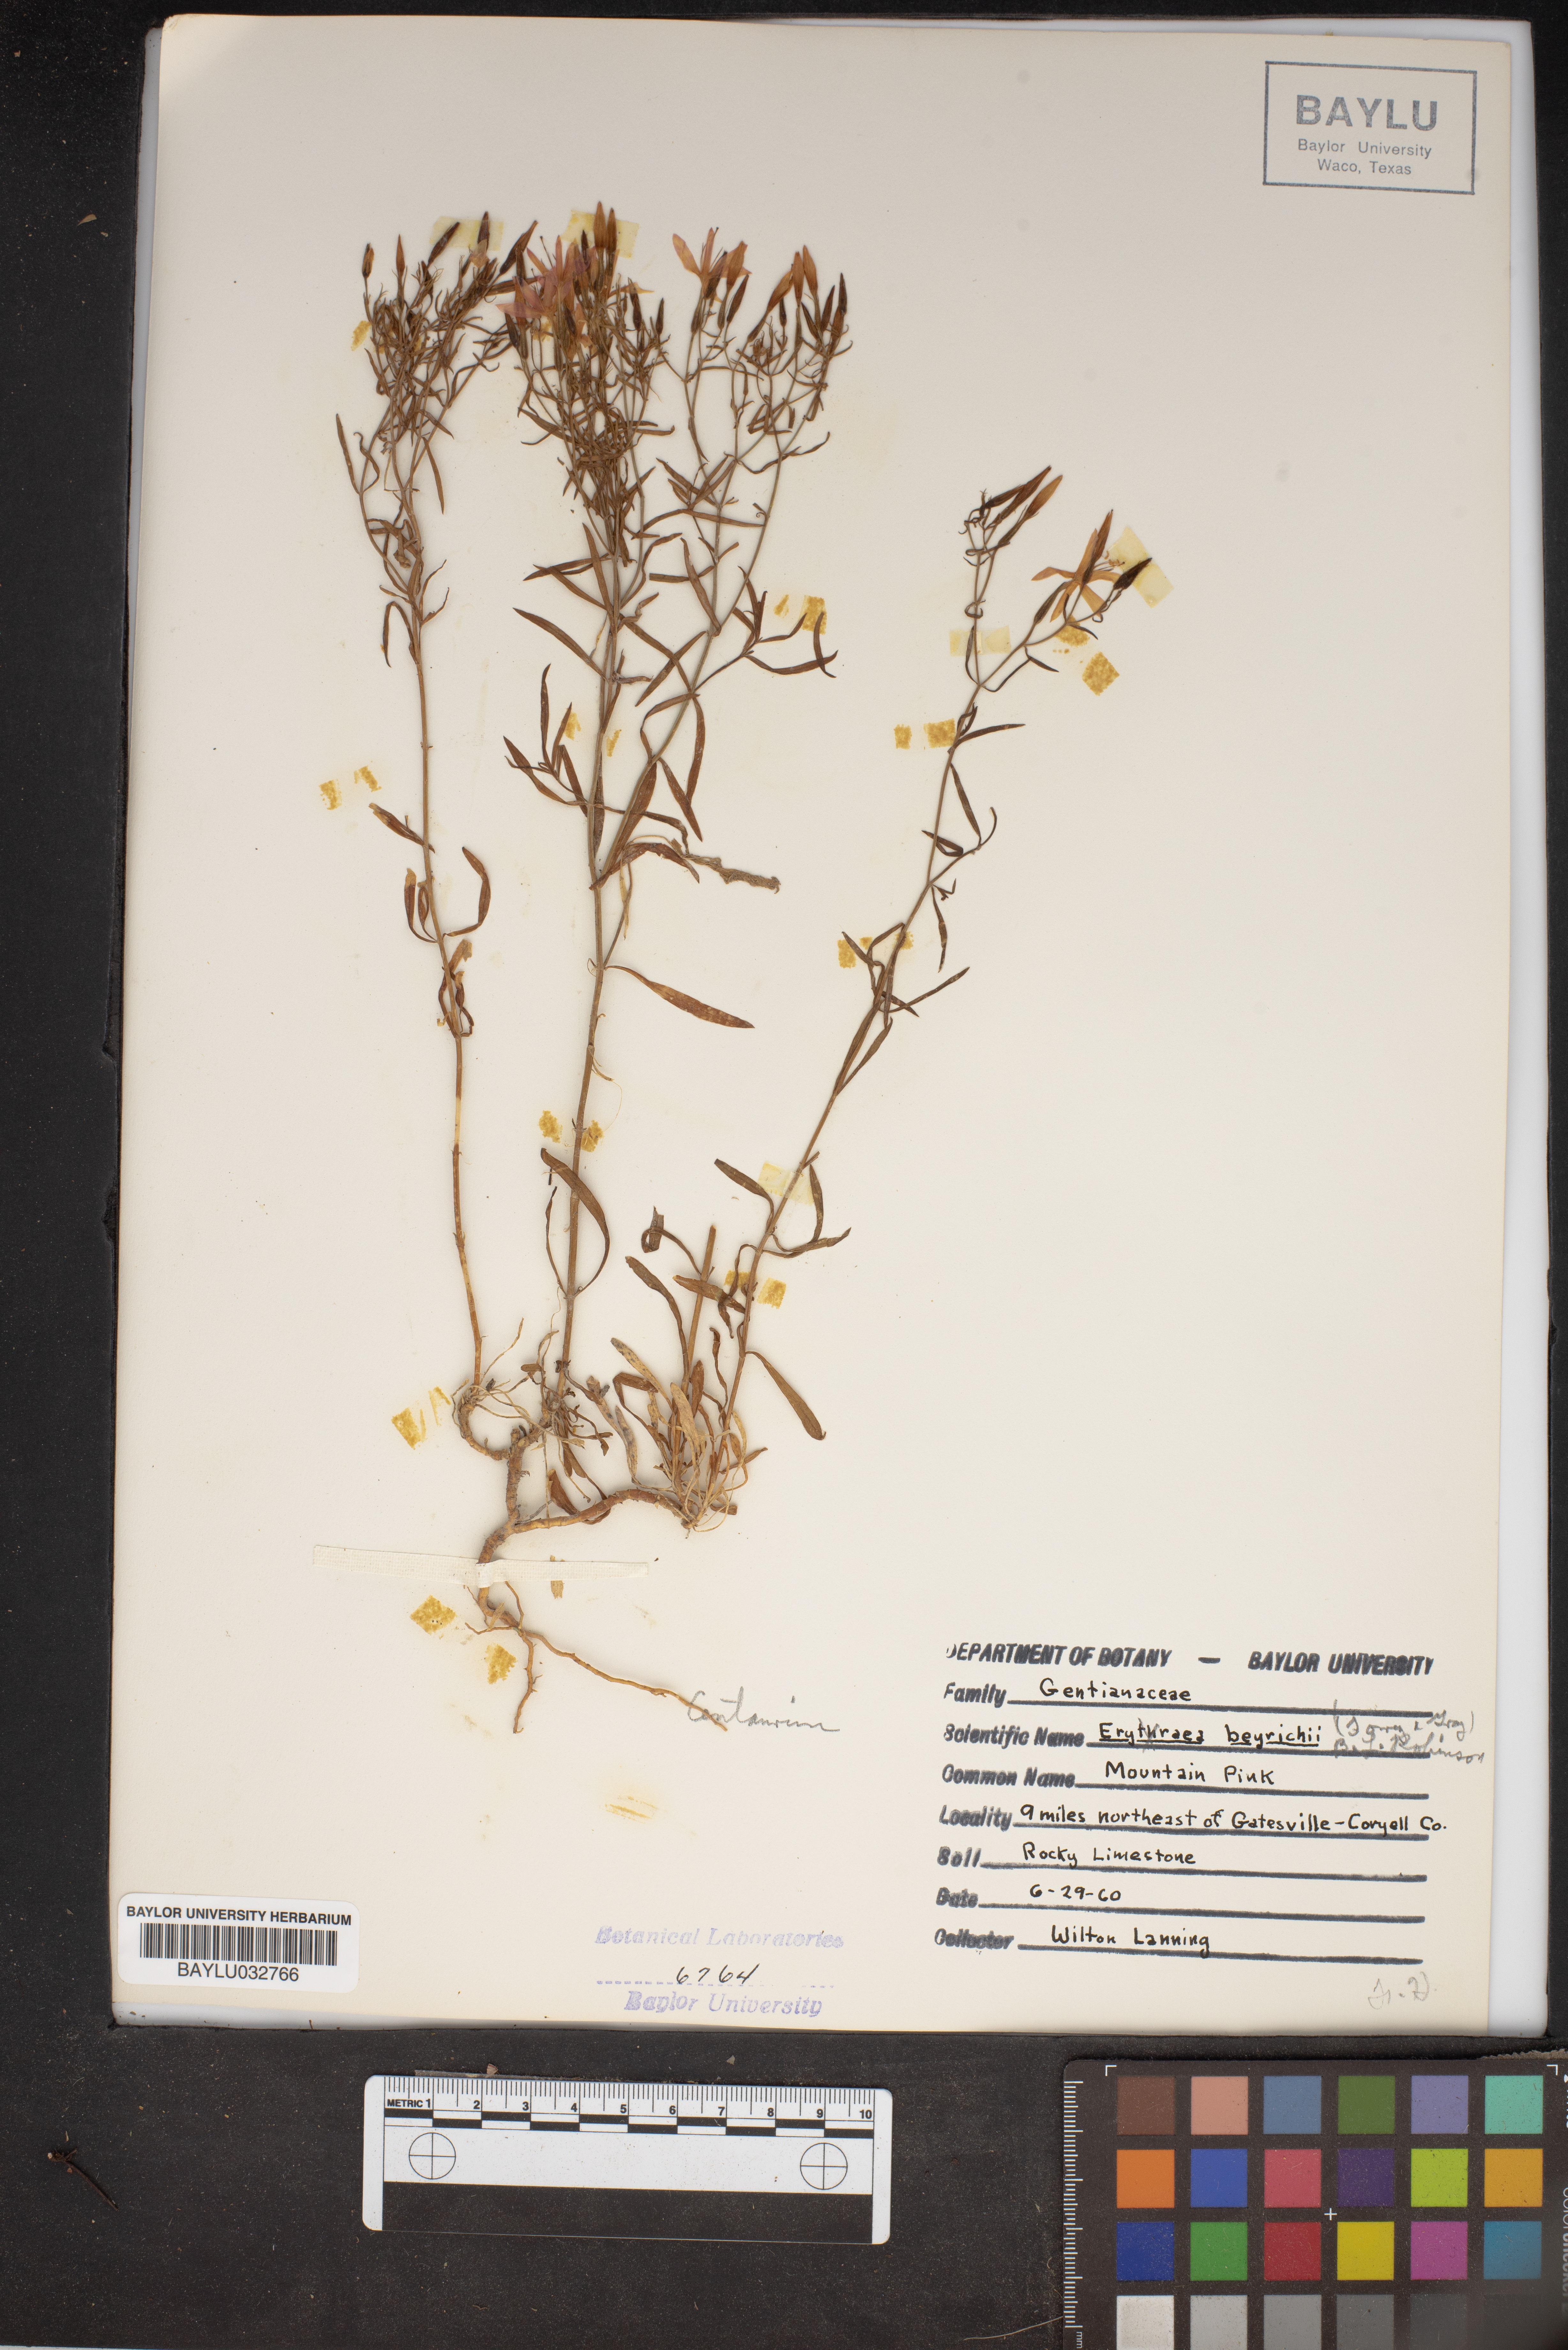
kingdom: Plantae
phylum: Tracheophyta
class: Magnoliopsida
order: Gentianales
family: Gentianaceae
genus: Zeltnera
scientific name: Zeltnera beyrichii
